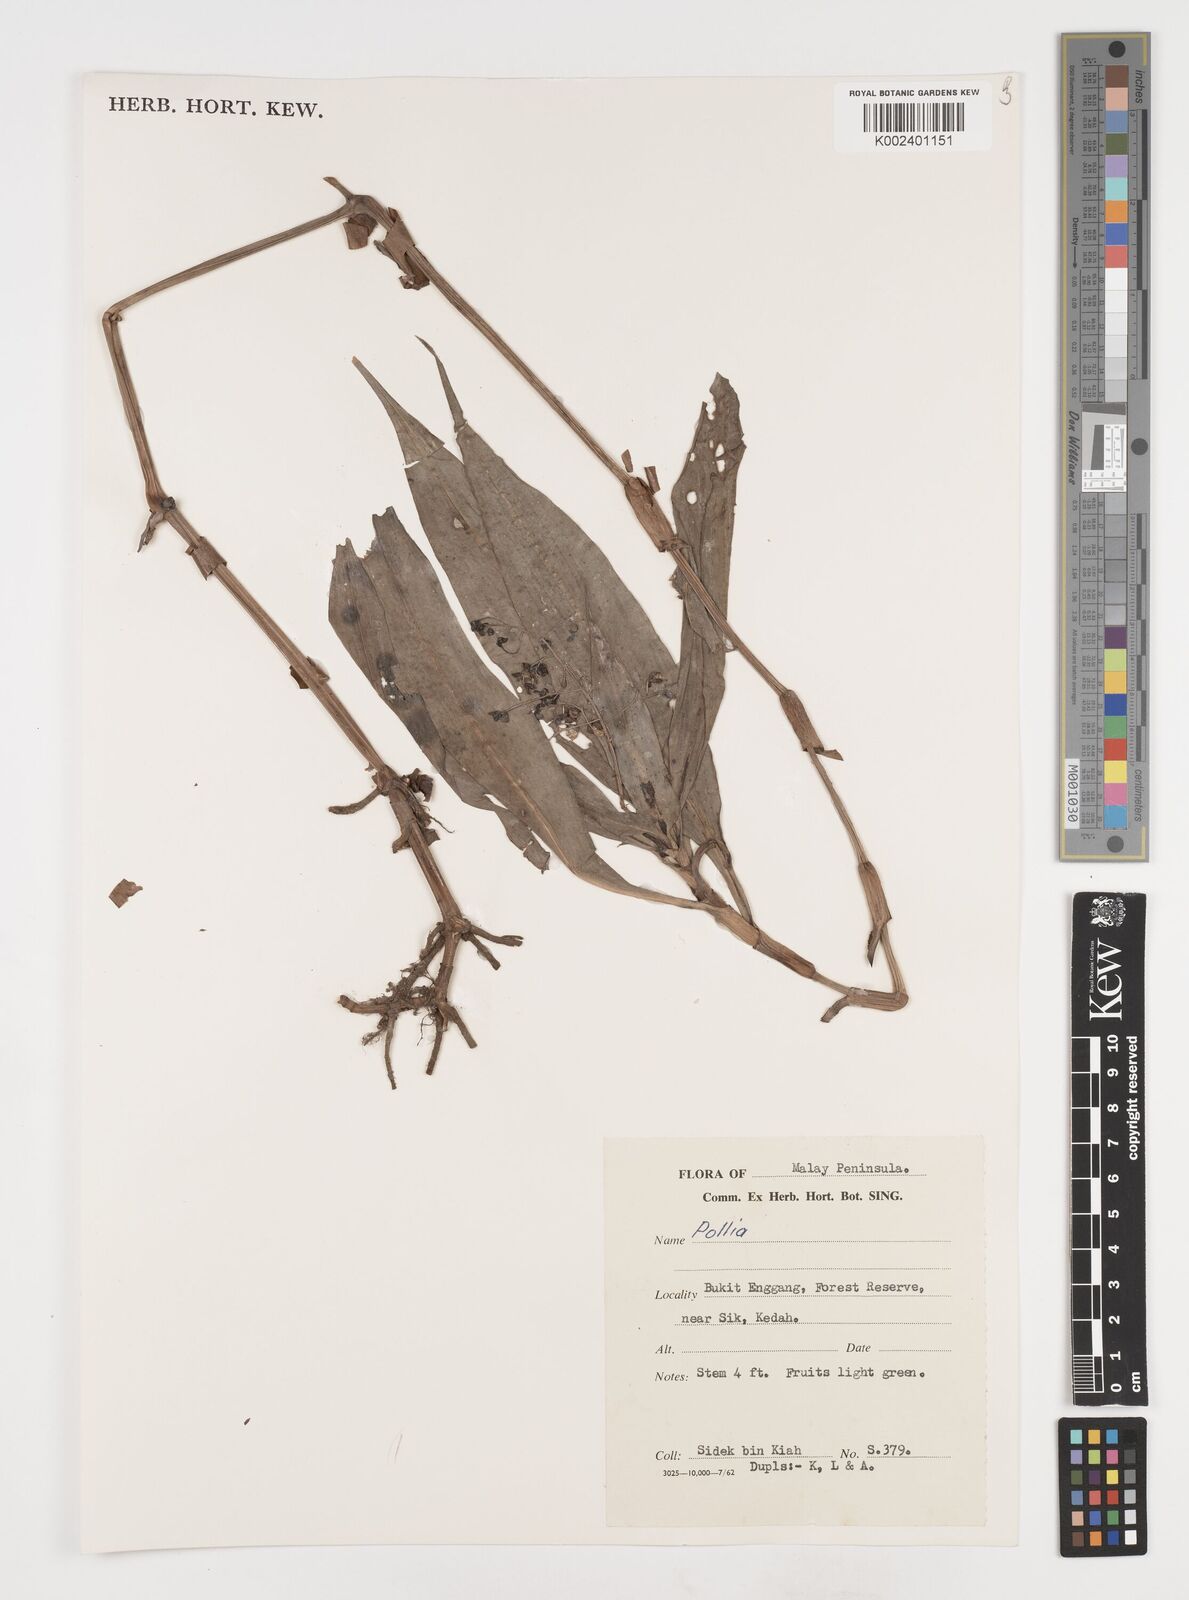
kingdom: Plantae
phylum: Tracheophyta
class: Liliopsida
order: Commelinales
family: Commelinaceae
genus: Pollia
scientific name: Pollia
